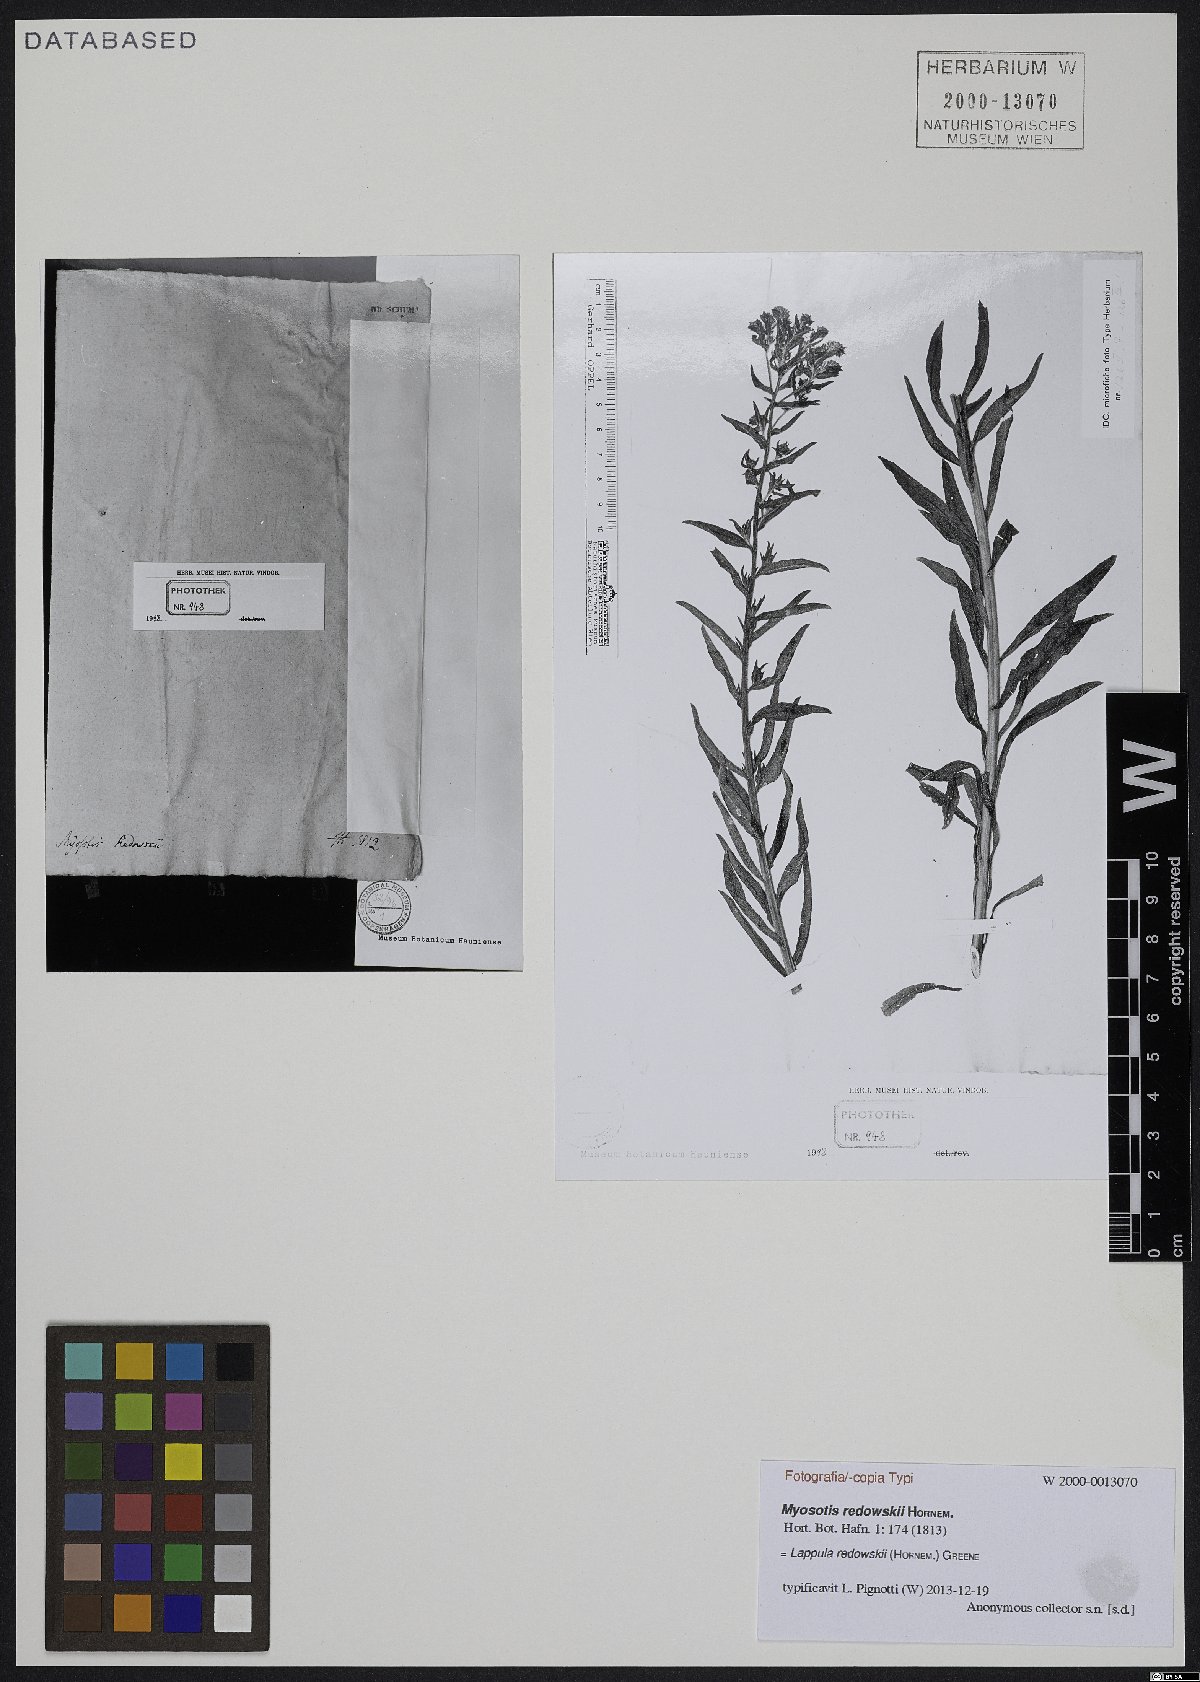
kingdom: Plantae
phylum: Tracheophyta
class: Magnoliopsida
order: Boraginales
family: Boraginaceae
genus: Lappula
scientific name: Lappula redowskii
